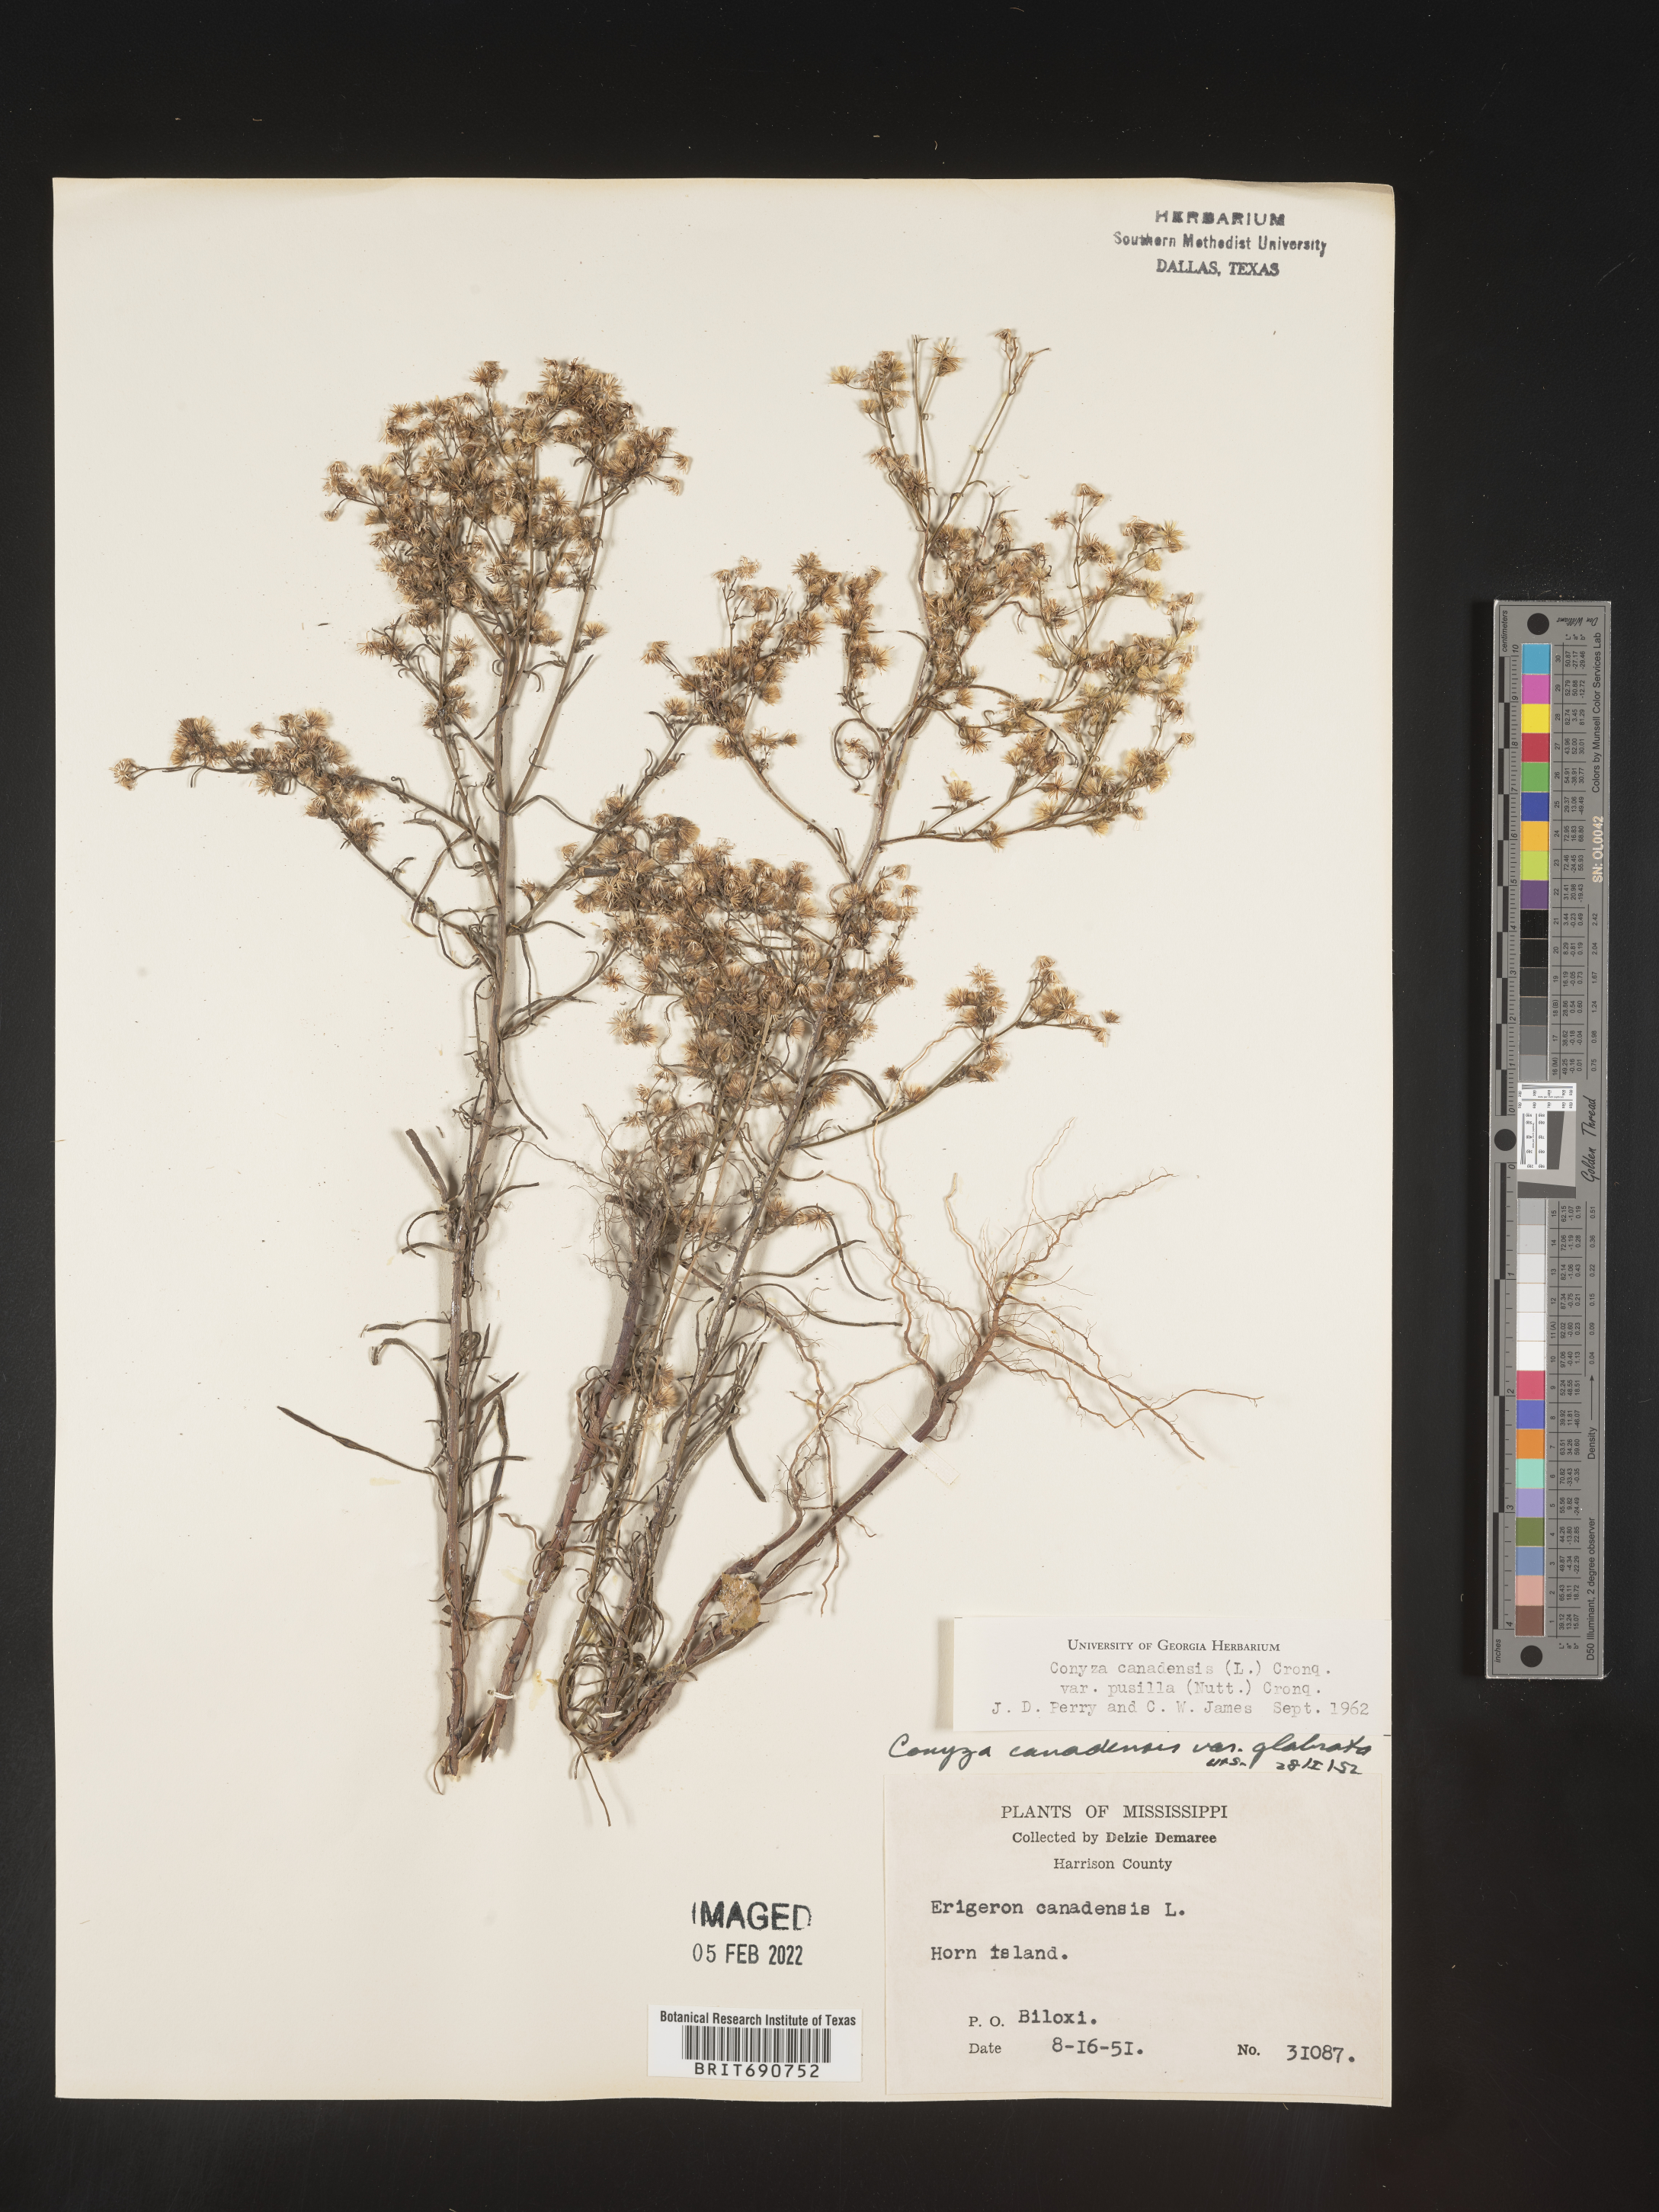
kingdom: Plantae
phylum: Tracheophyta
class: Magnoliopsida
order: Asterales
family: Asteraceae
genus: Erigeron
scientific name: Erigeron canadensis
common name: Canadian fleabane
